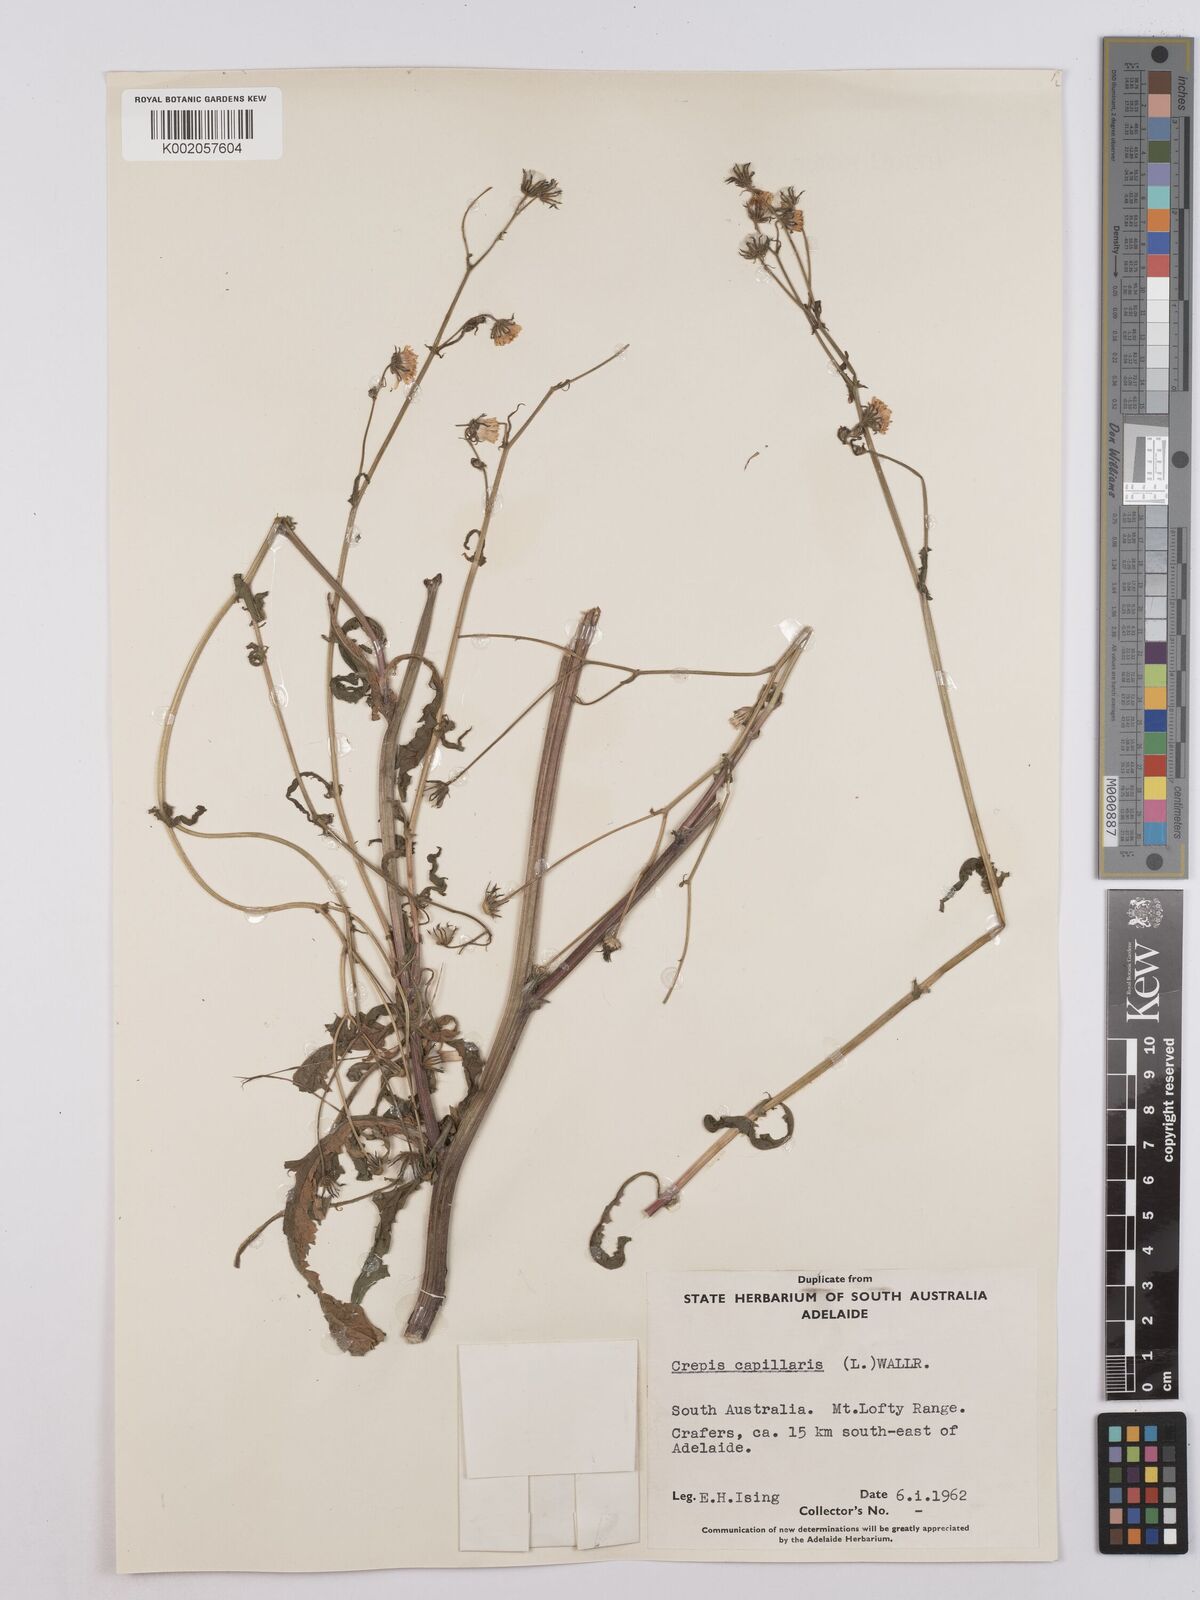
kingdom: Plantae
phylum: Tracheophyta
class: Magnoliopsida
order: Asterales
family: Asteraceae
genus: Crepis
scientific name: Crepis capillaris
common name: Smooth hawksbeard
